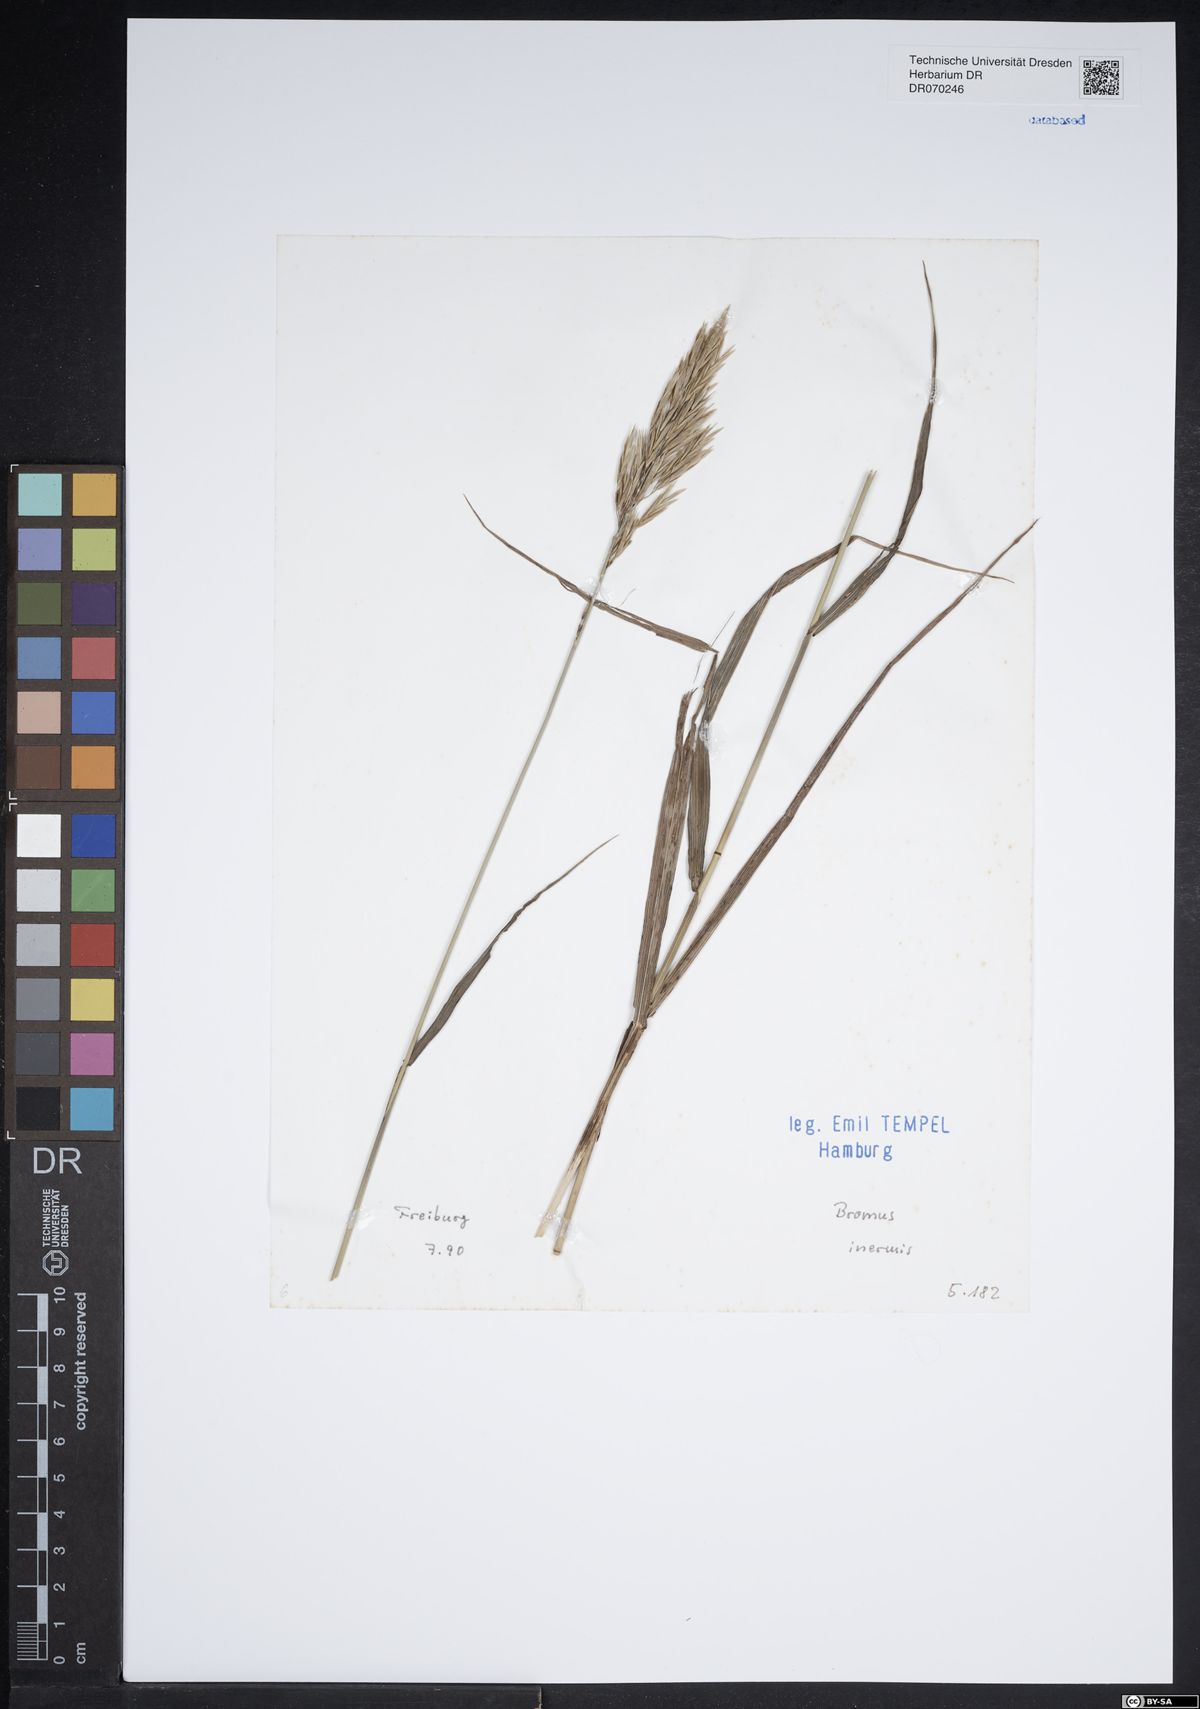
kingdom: Plantae
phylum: Tracheophyta
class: Liliopsida
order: Poales
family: Poaceae
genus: Bromus
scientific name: Bromus inermis
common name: Smooth brome
